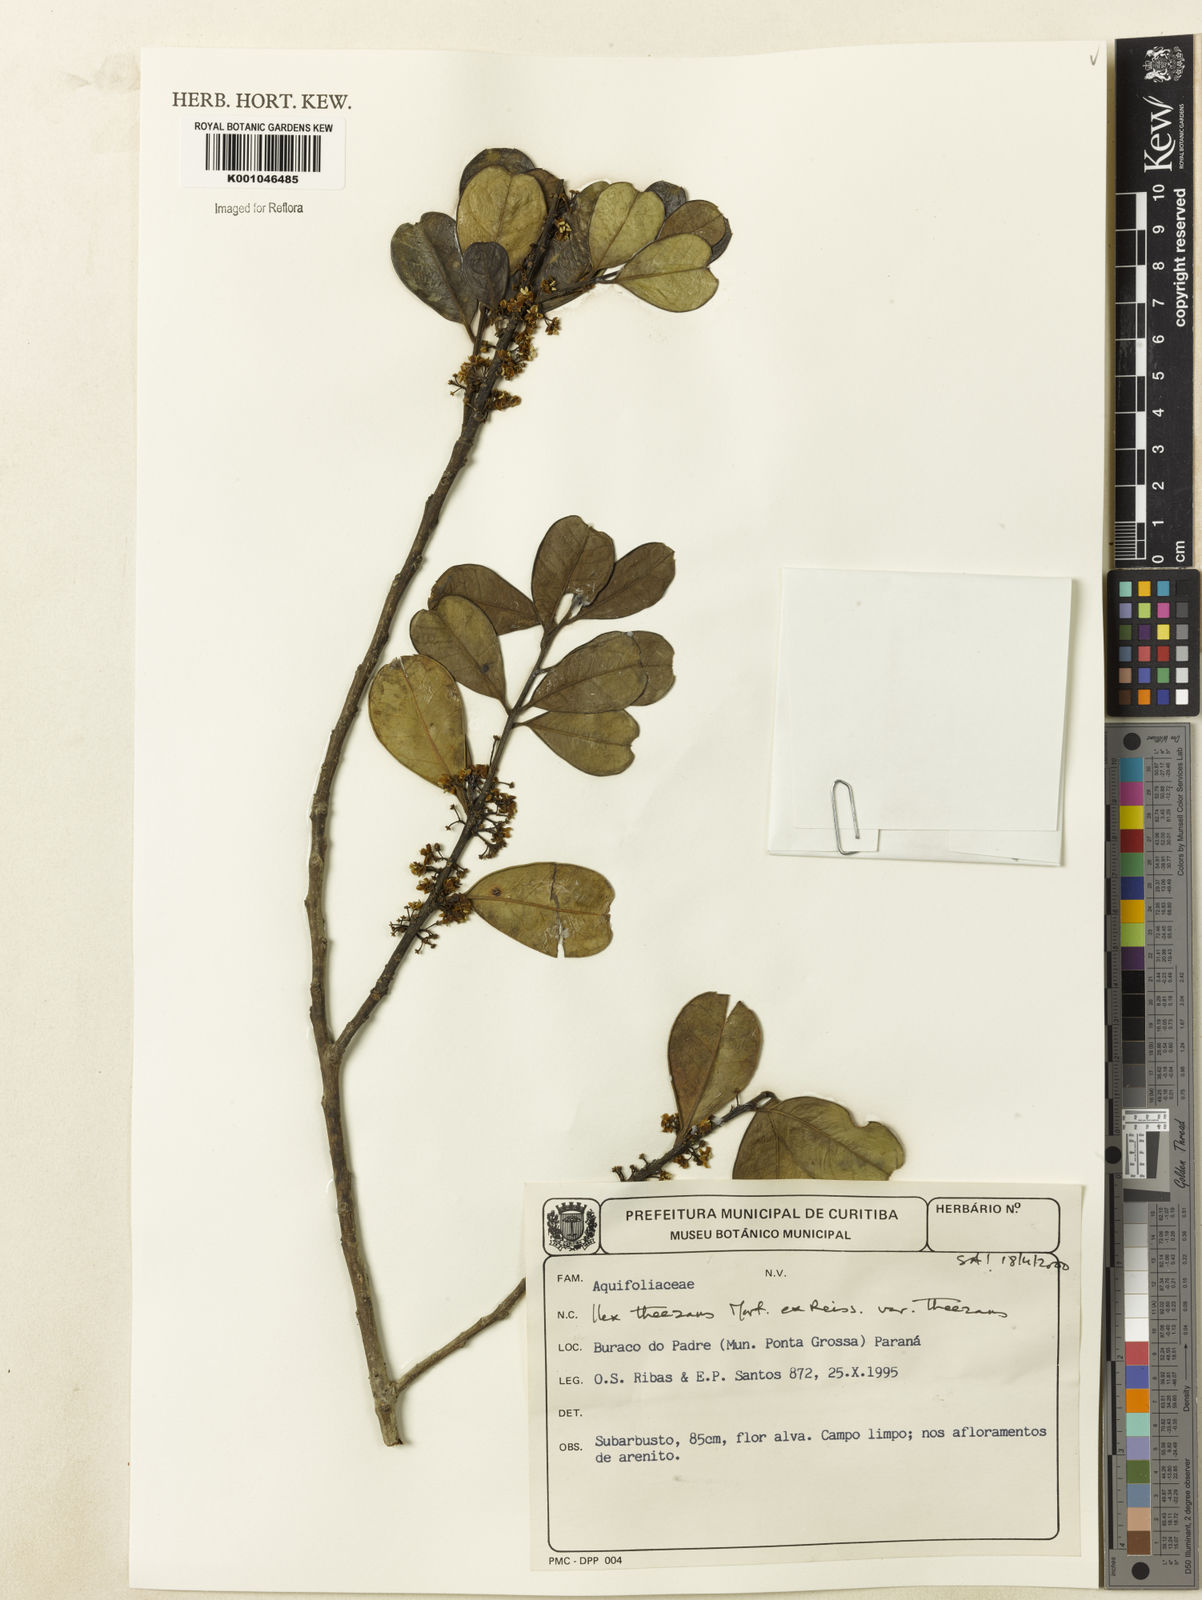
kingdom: Plantae
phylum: Tracheophyta
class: Magnoliopsida
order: Aquifoliales
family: Aquifoliaceae
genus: Ilex
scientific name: Ilex paraguariensis
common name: Paraguay tea
